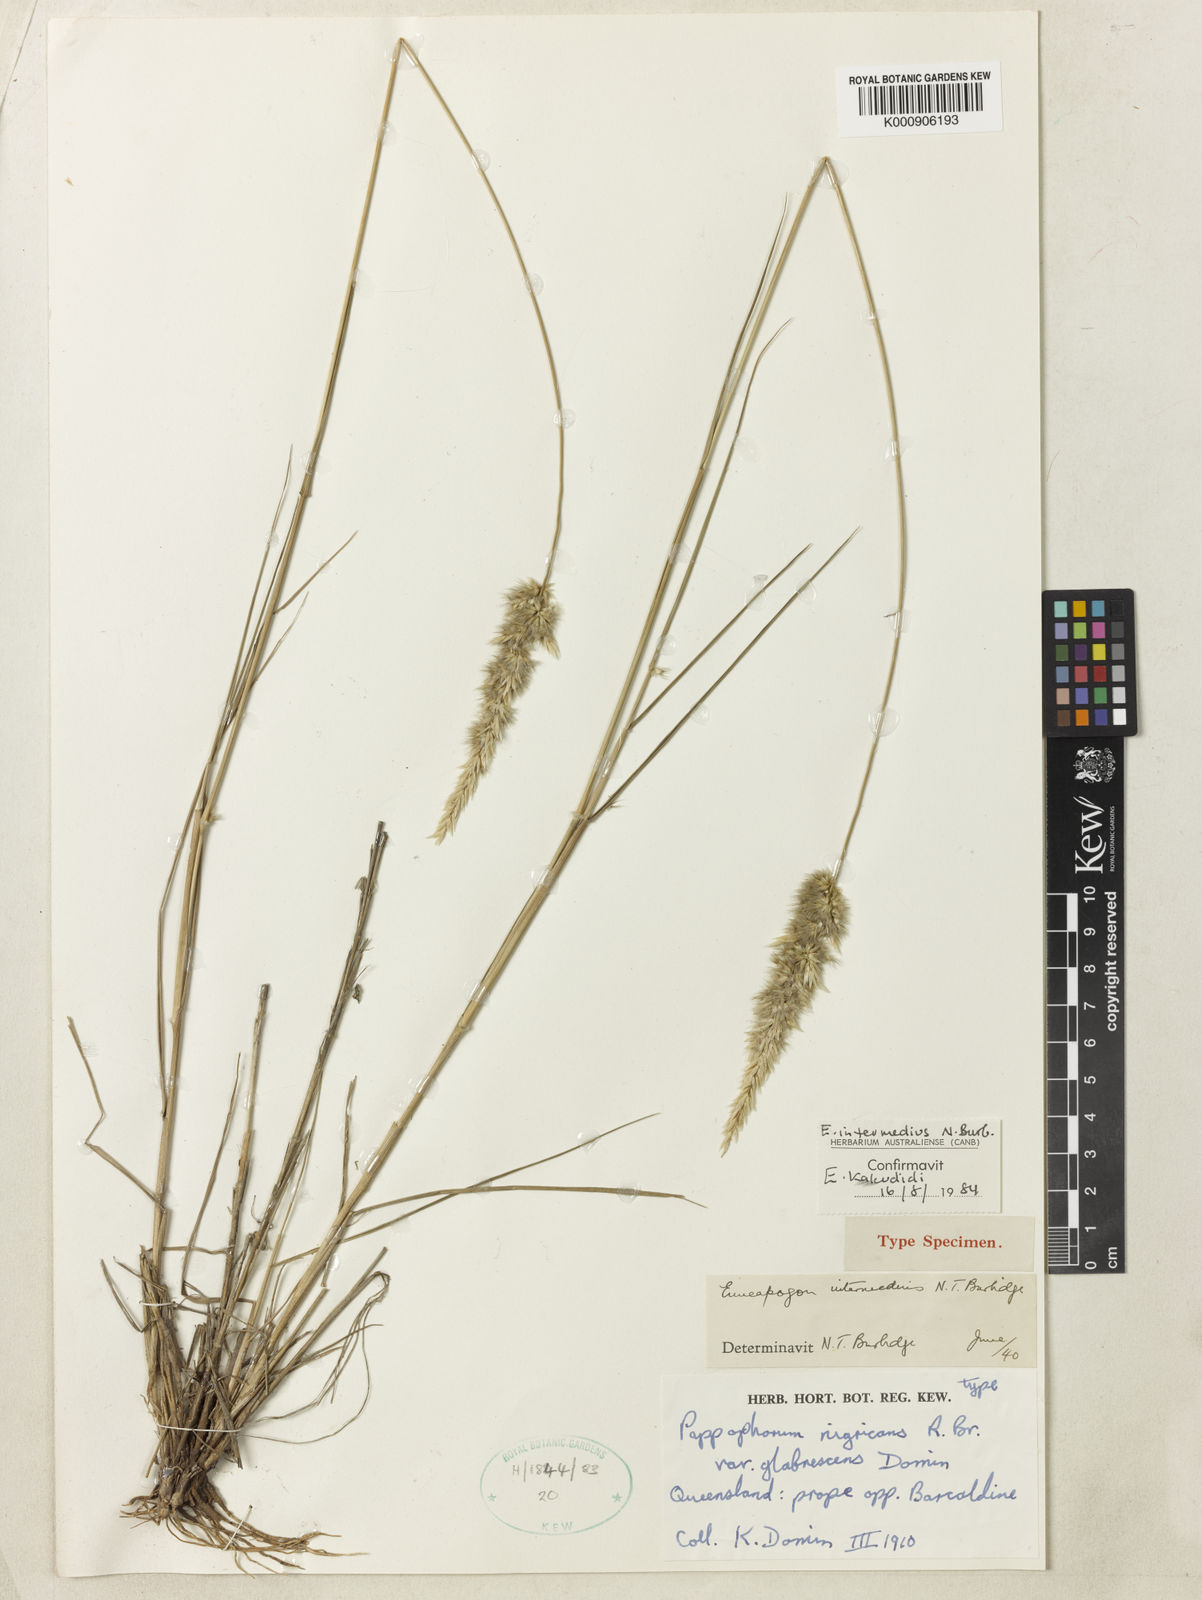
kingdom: Plantae
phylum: Tracheophyta
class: Liliopsida
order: Poales
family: Poaceae
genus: Enneapogon
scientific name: Enneapogon intermedius
